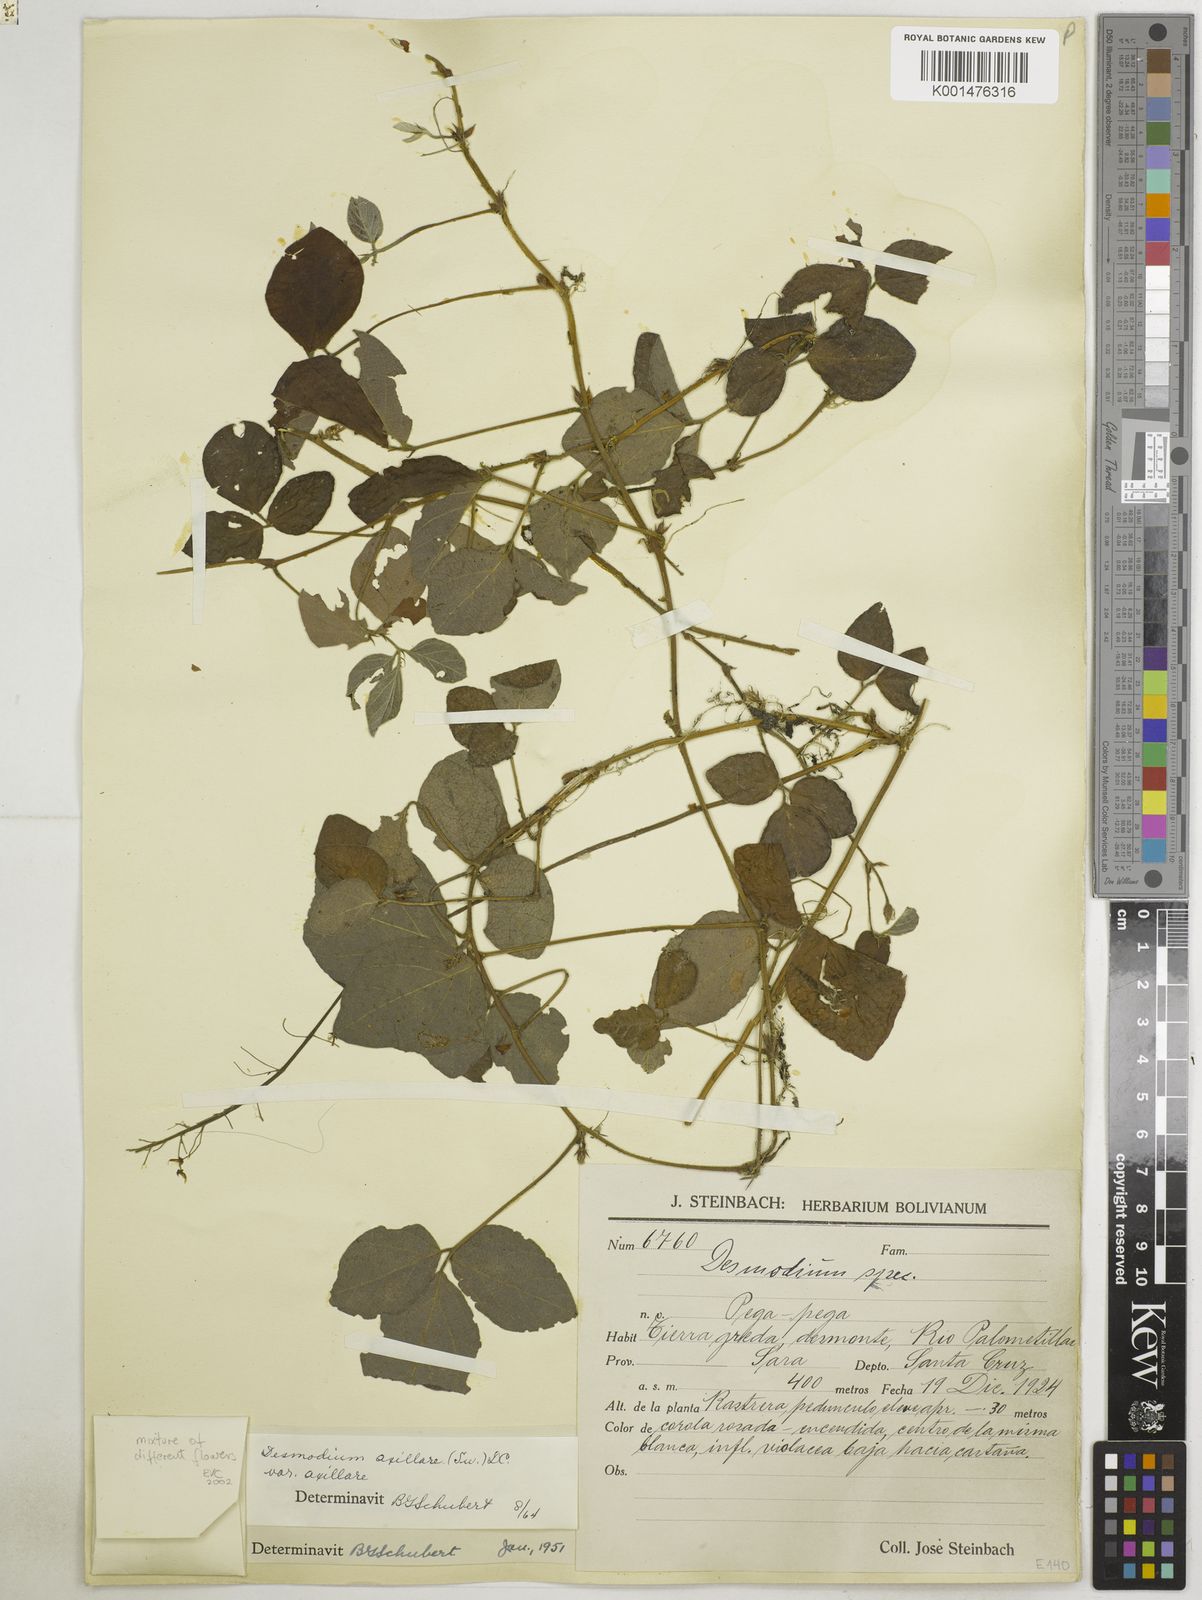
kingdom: Plantae
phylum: Tracheophyta
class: Magnoliopsida
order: Fabales
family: Fabaceae
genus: Desmodium
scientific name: Desmodium axillare
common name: Wire with
